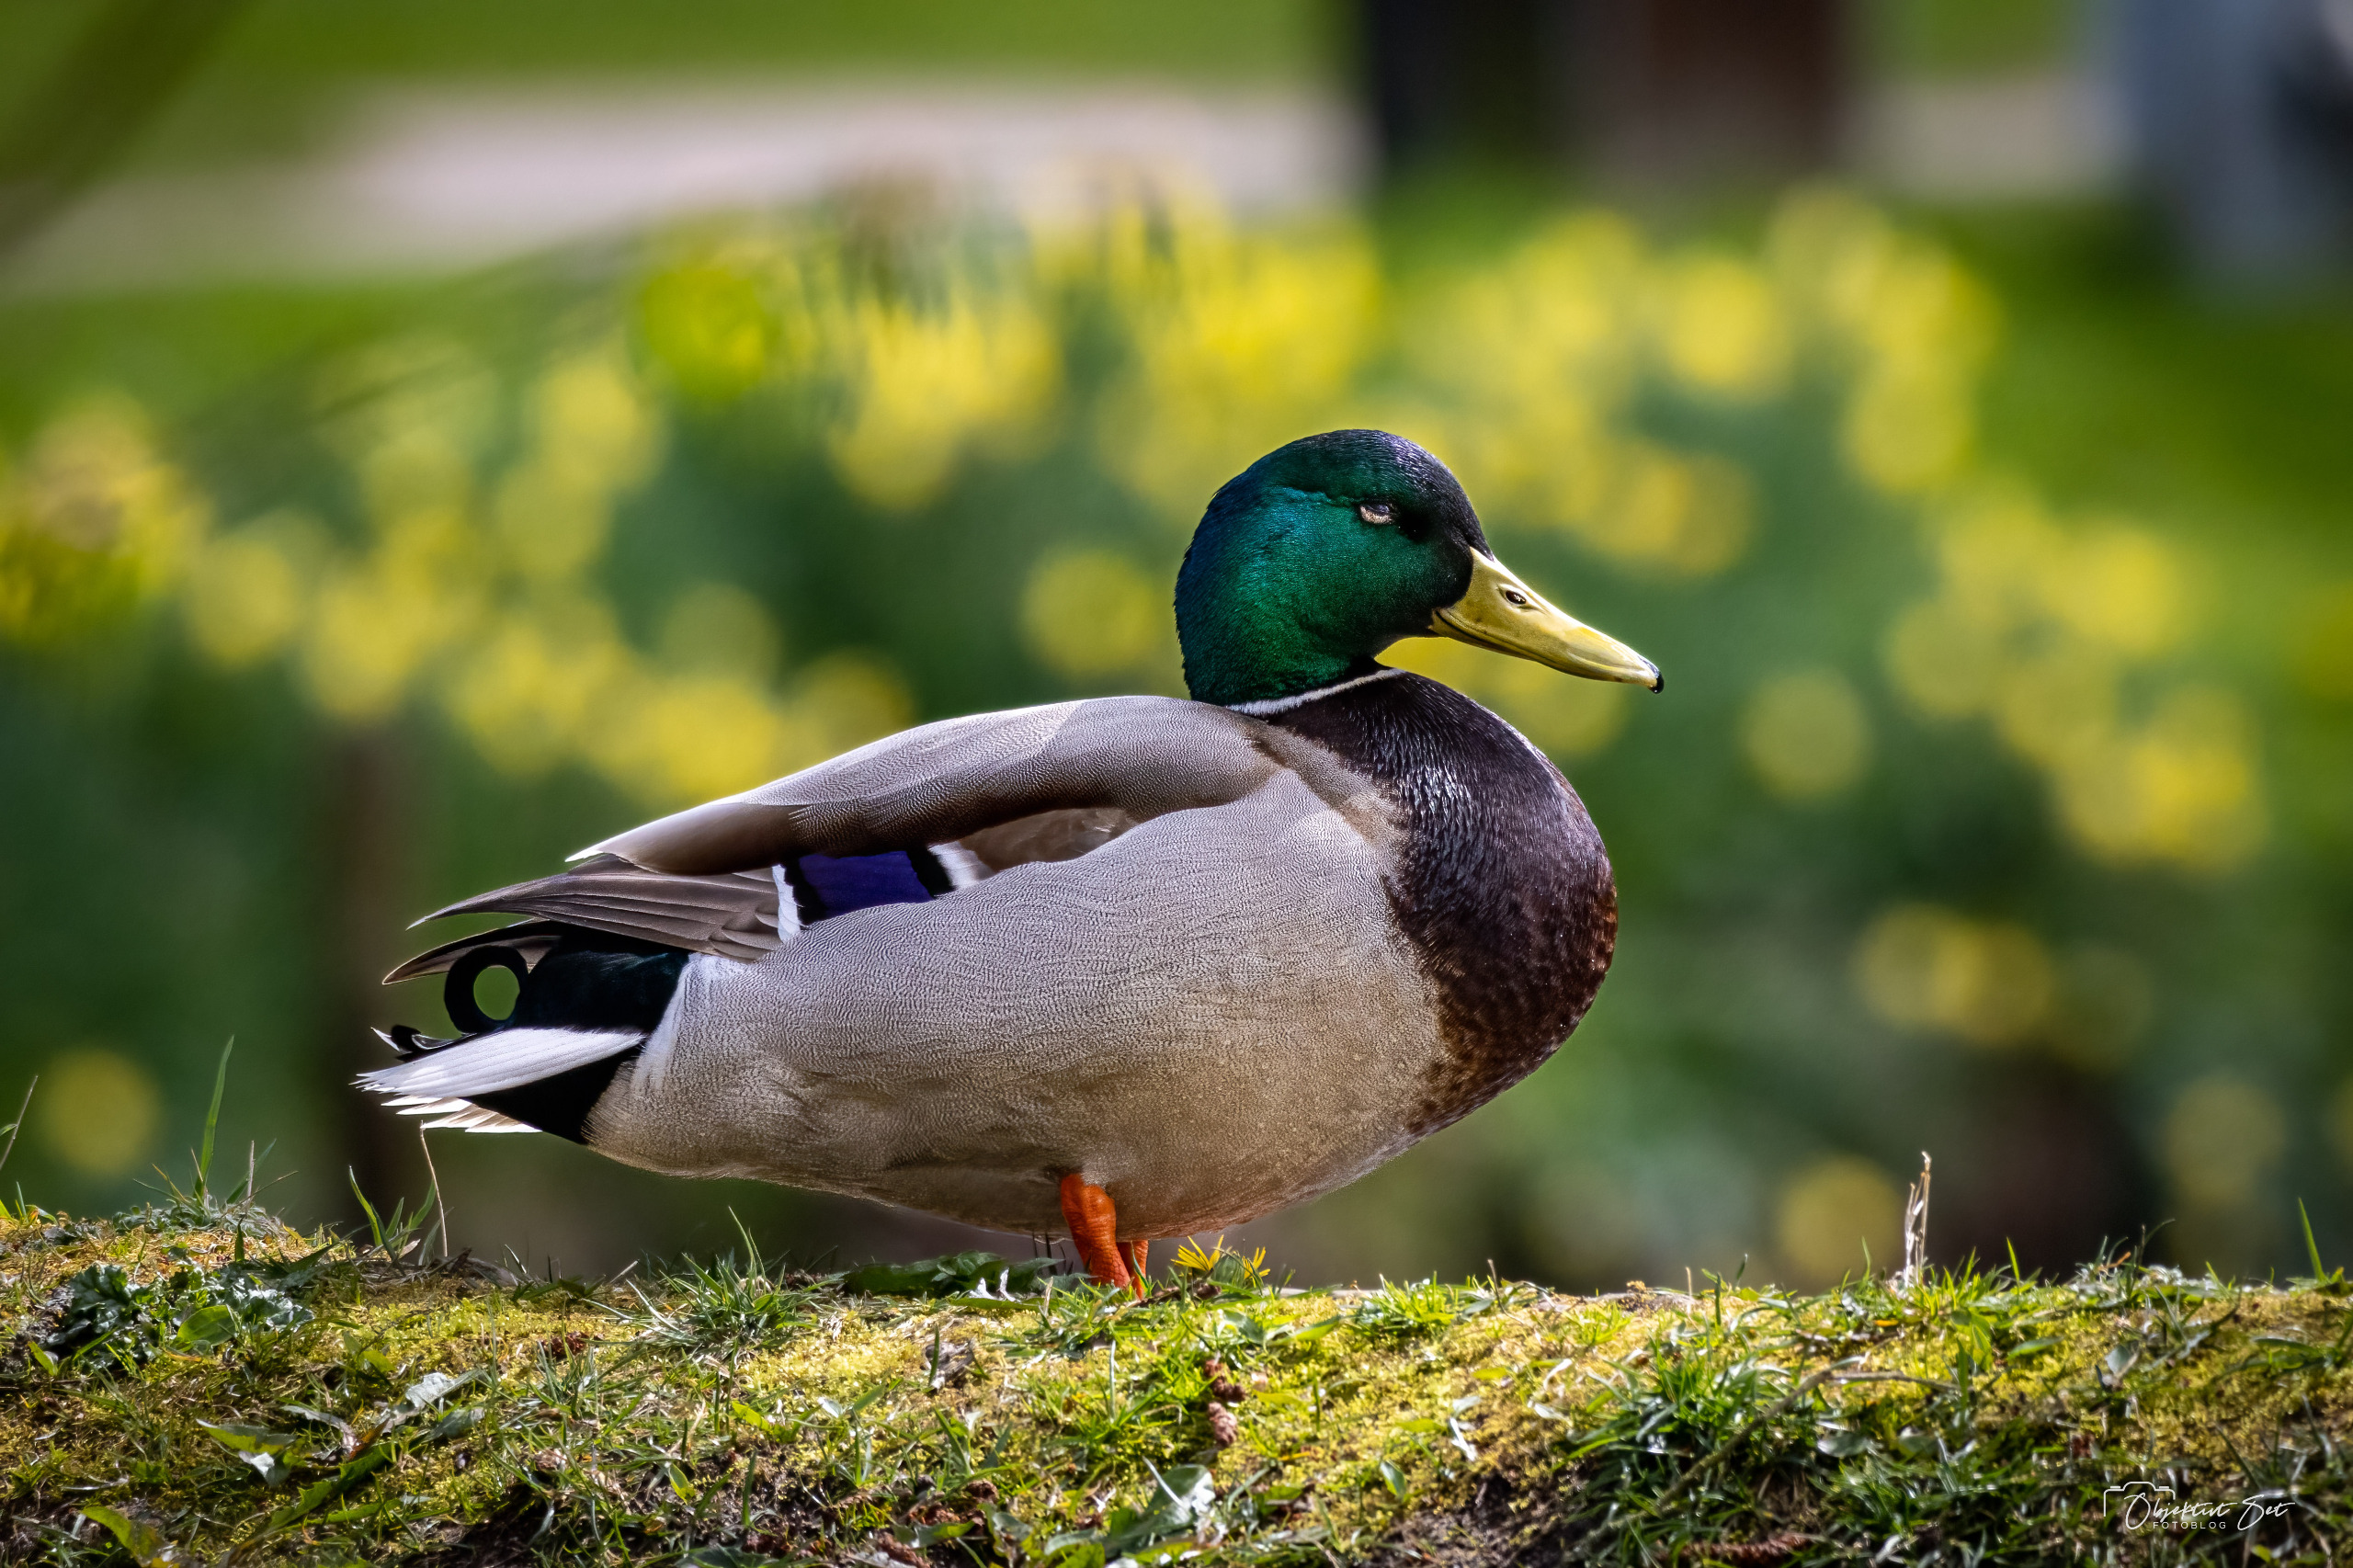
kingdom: Animalia
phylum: Chordata
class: Aves
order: Anseriformes
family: Anatidae
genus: Anas
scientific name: Anas platyrhynchos
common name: Gråand
